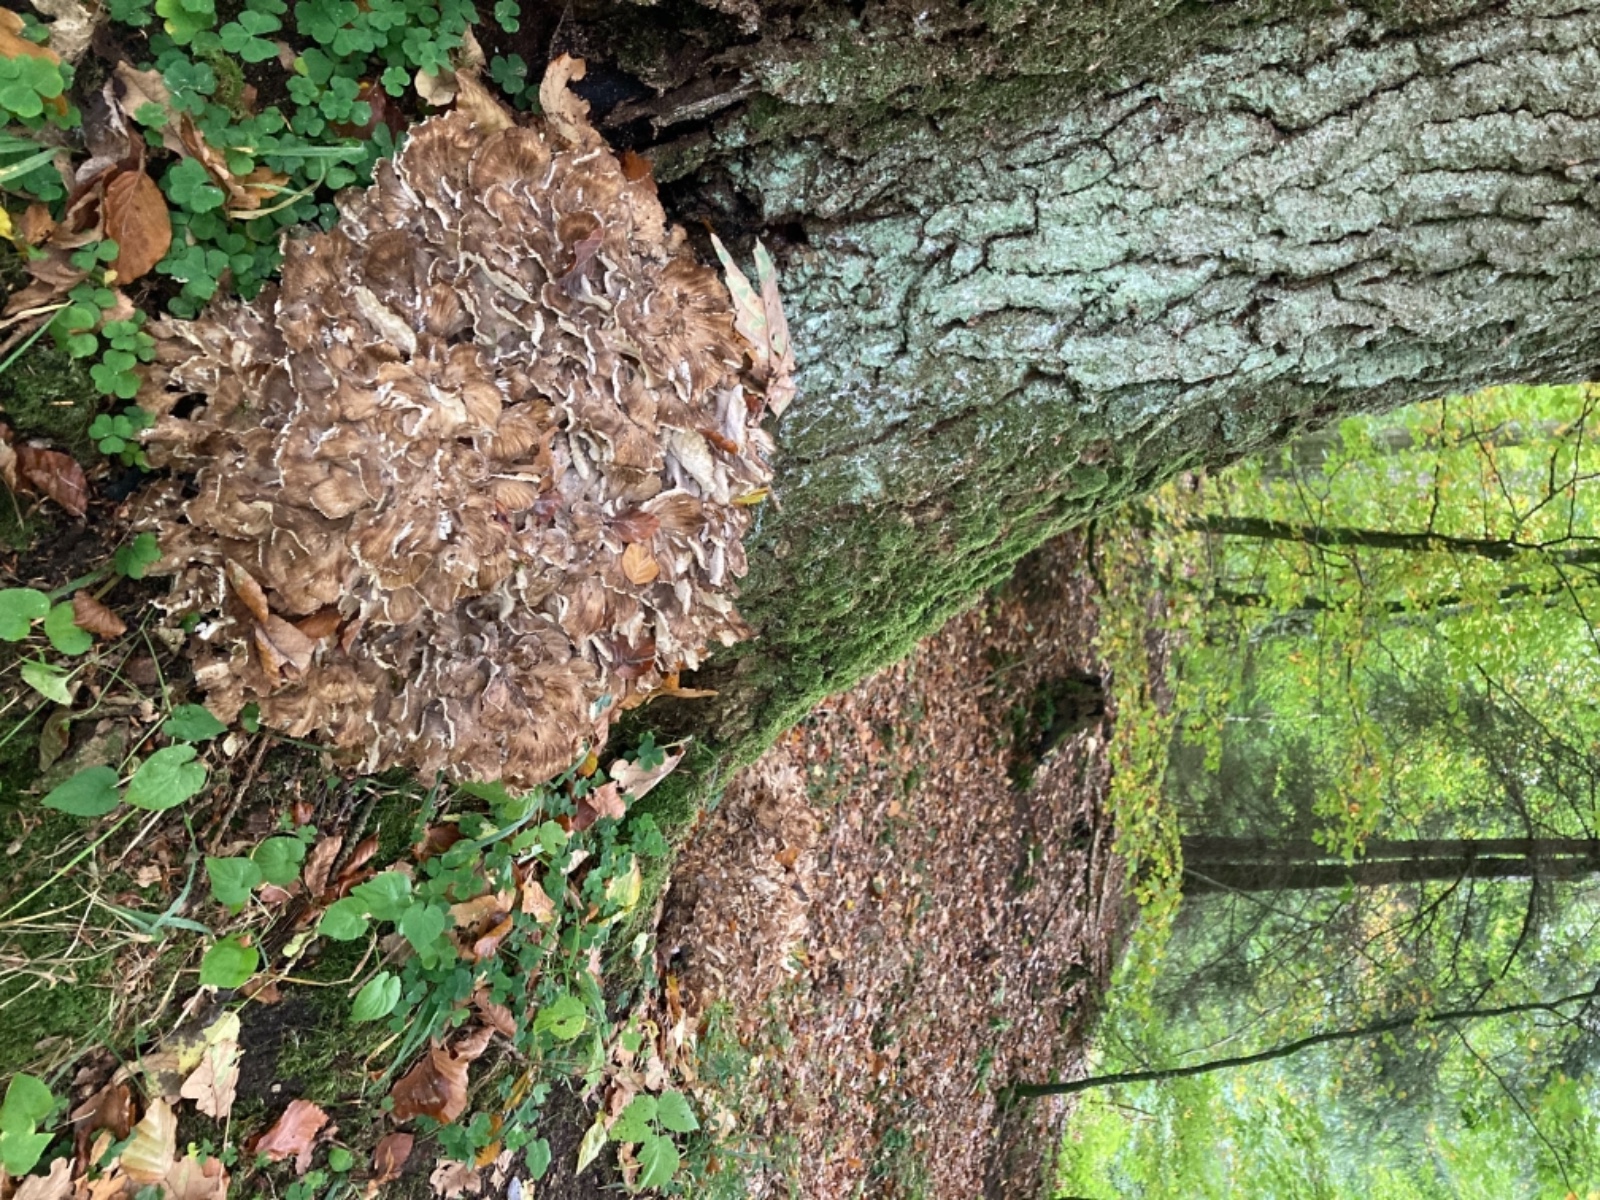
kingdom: Fungi
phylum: Basidiomycota
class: Agaricomycetes
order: Polyporales
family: Grifolaceae
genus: Grifola
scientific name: Grifola frondosa
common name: tueporesvamp
